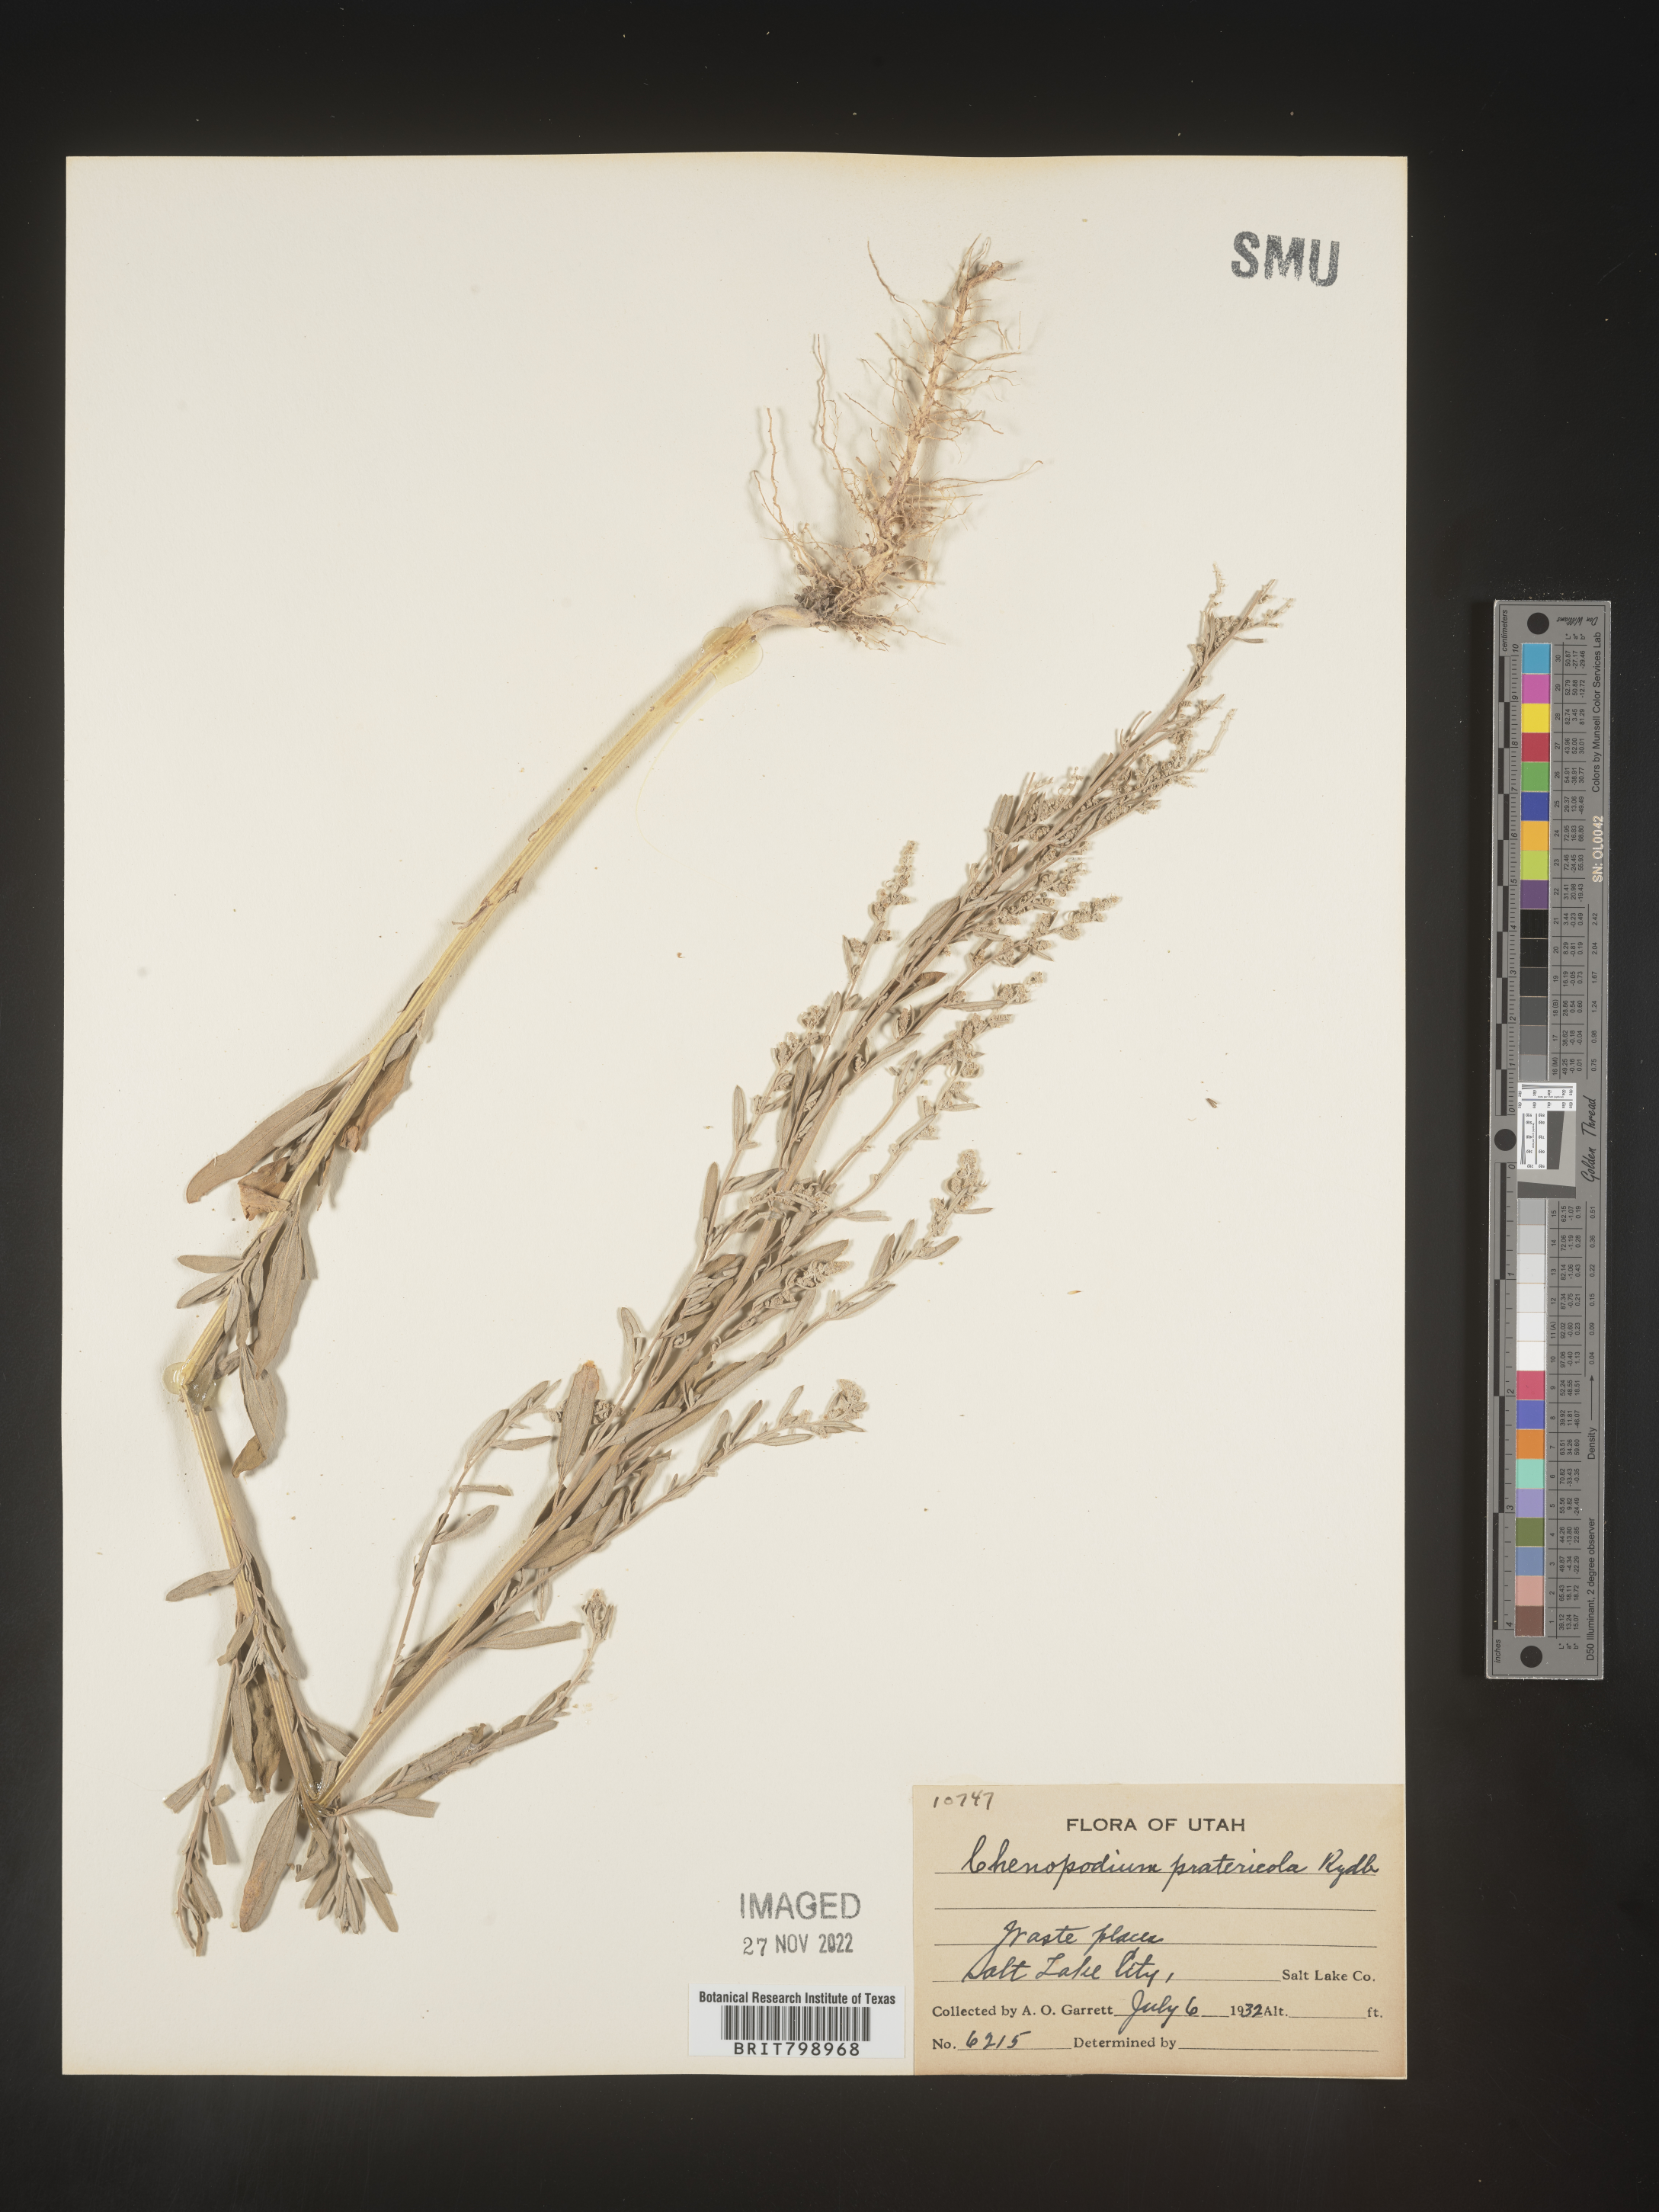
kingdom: Plantae
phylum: Tracheophyta
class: Magnoliopsida
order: Caryophyllales
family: Amaranthaceae
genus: Chenopodium
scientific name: Chenopodium pratericola
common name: Desert goosefoot
